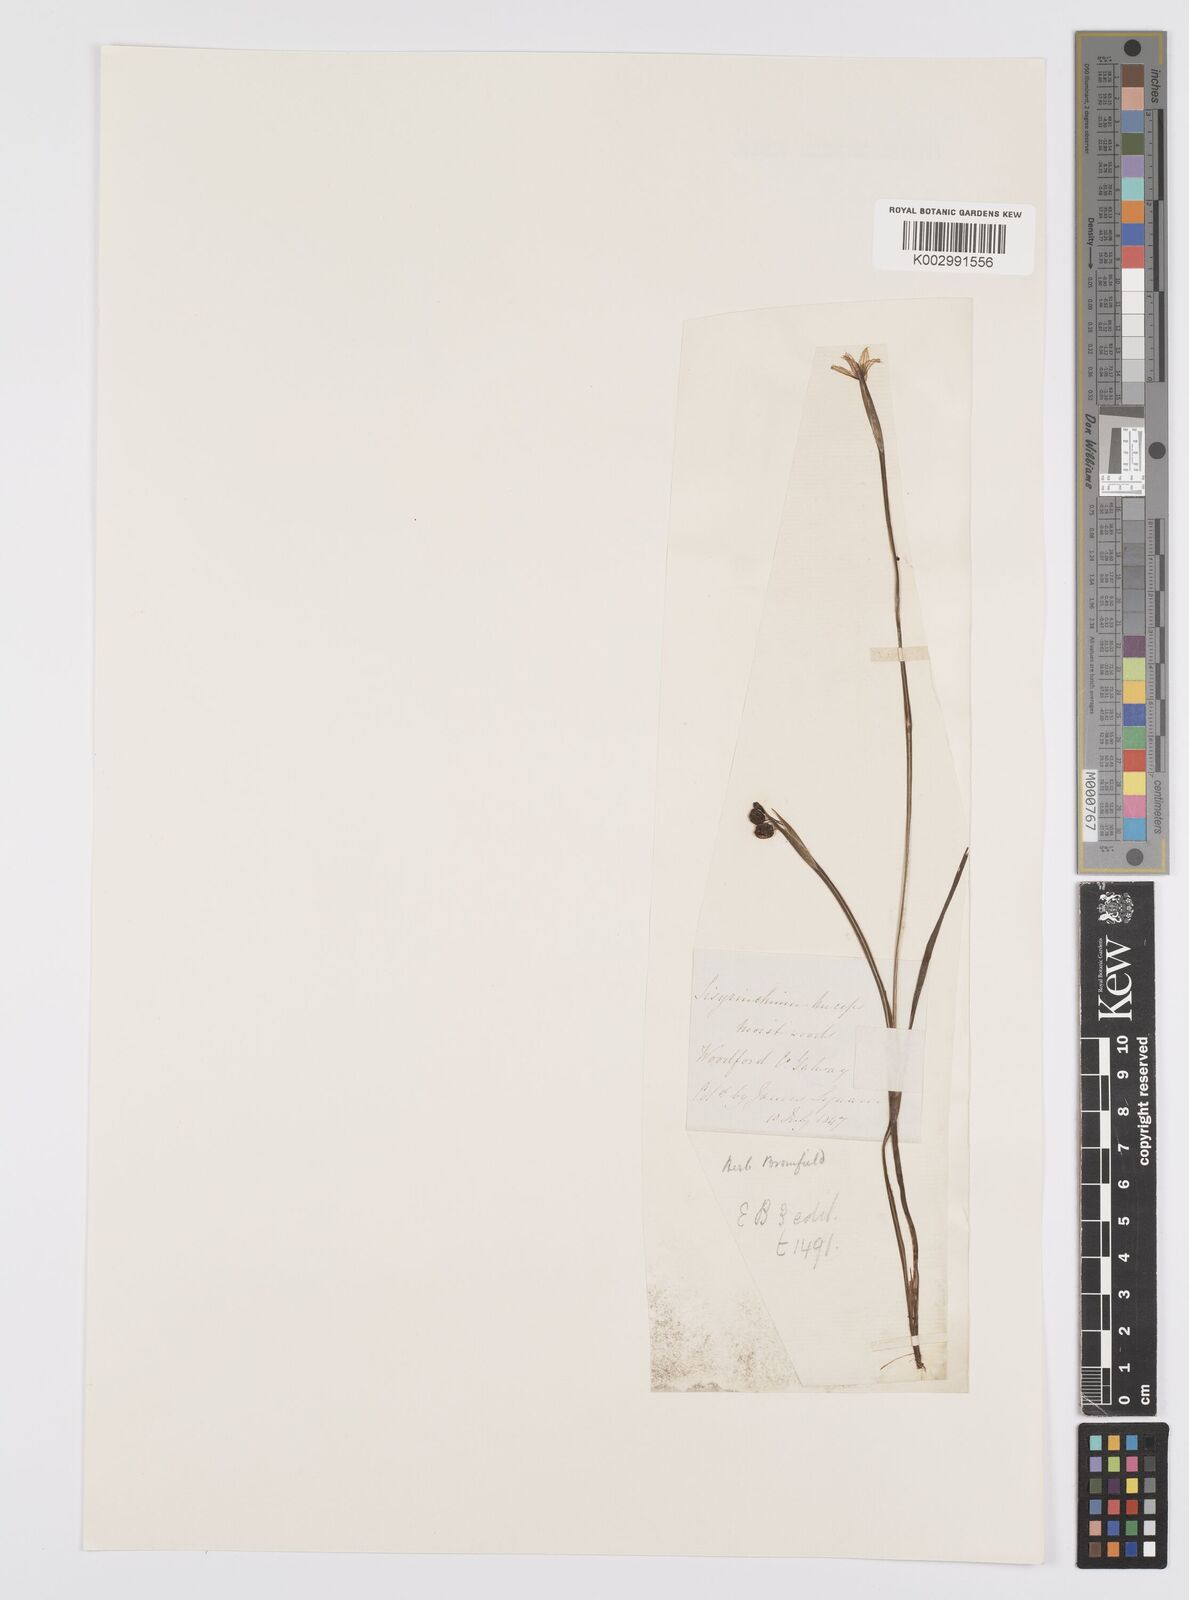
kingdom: Plantae
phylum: Tracheophyta
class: Liliopsida
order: Asparagales
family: Iridaceae
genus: Sisyrinchium
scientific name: Sisyrinchium angustifolium
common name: Narrow-leaf blue-eyed-grass
